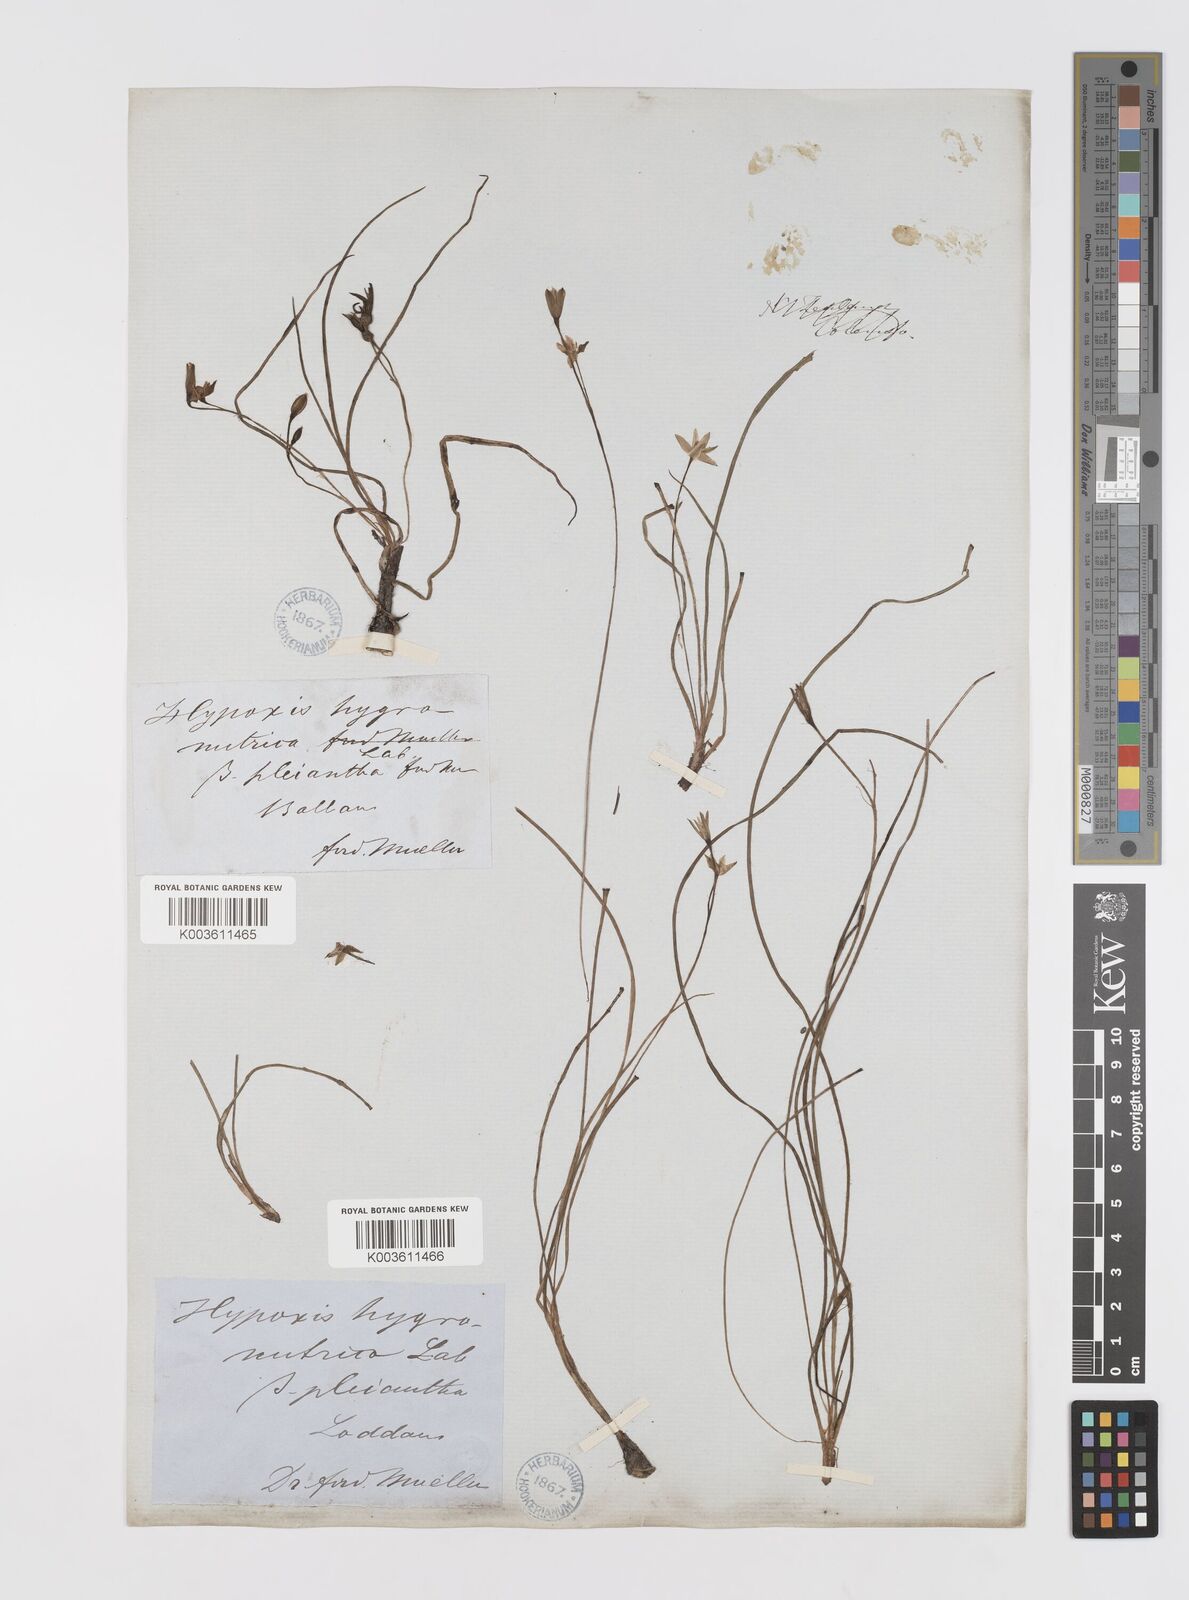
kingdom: Plantae
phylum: Tracheophyta
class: Liliopsida
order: Asparagales
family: Hypoxidaceae
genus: Hypoxis
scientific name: Hypoxis hygrometrica
